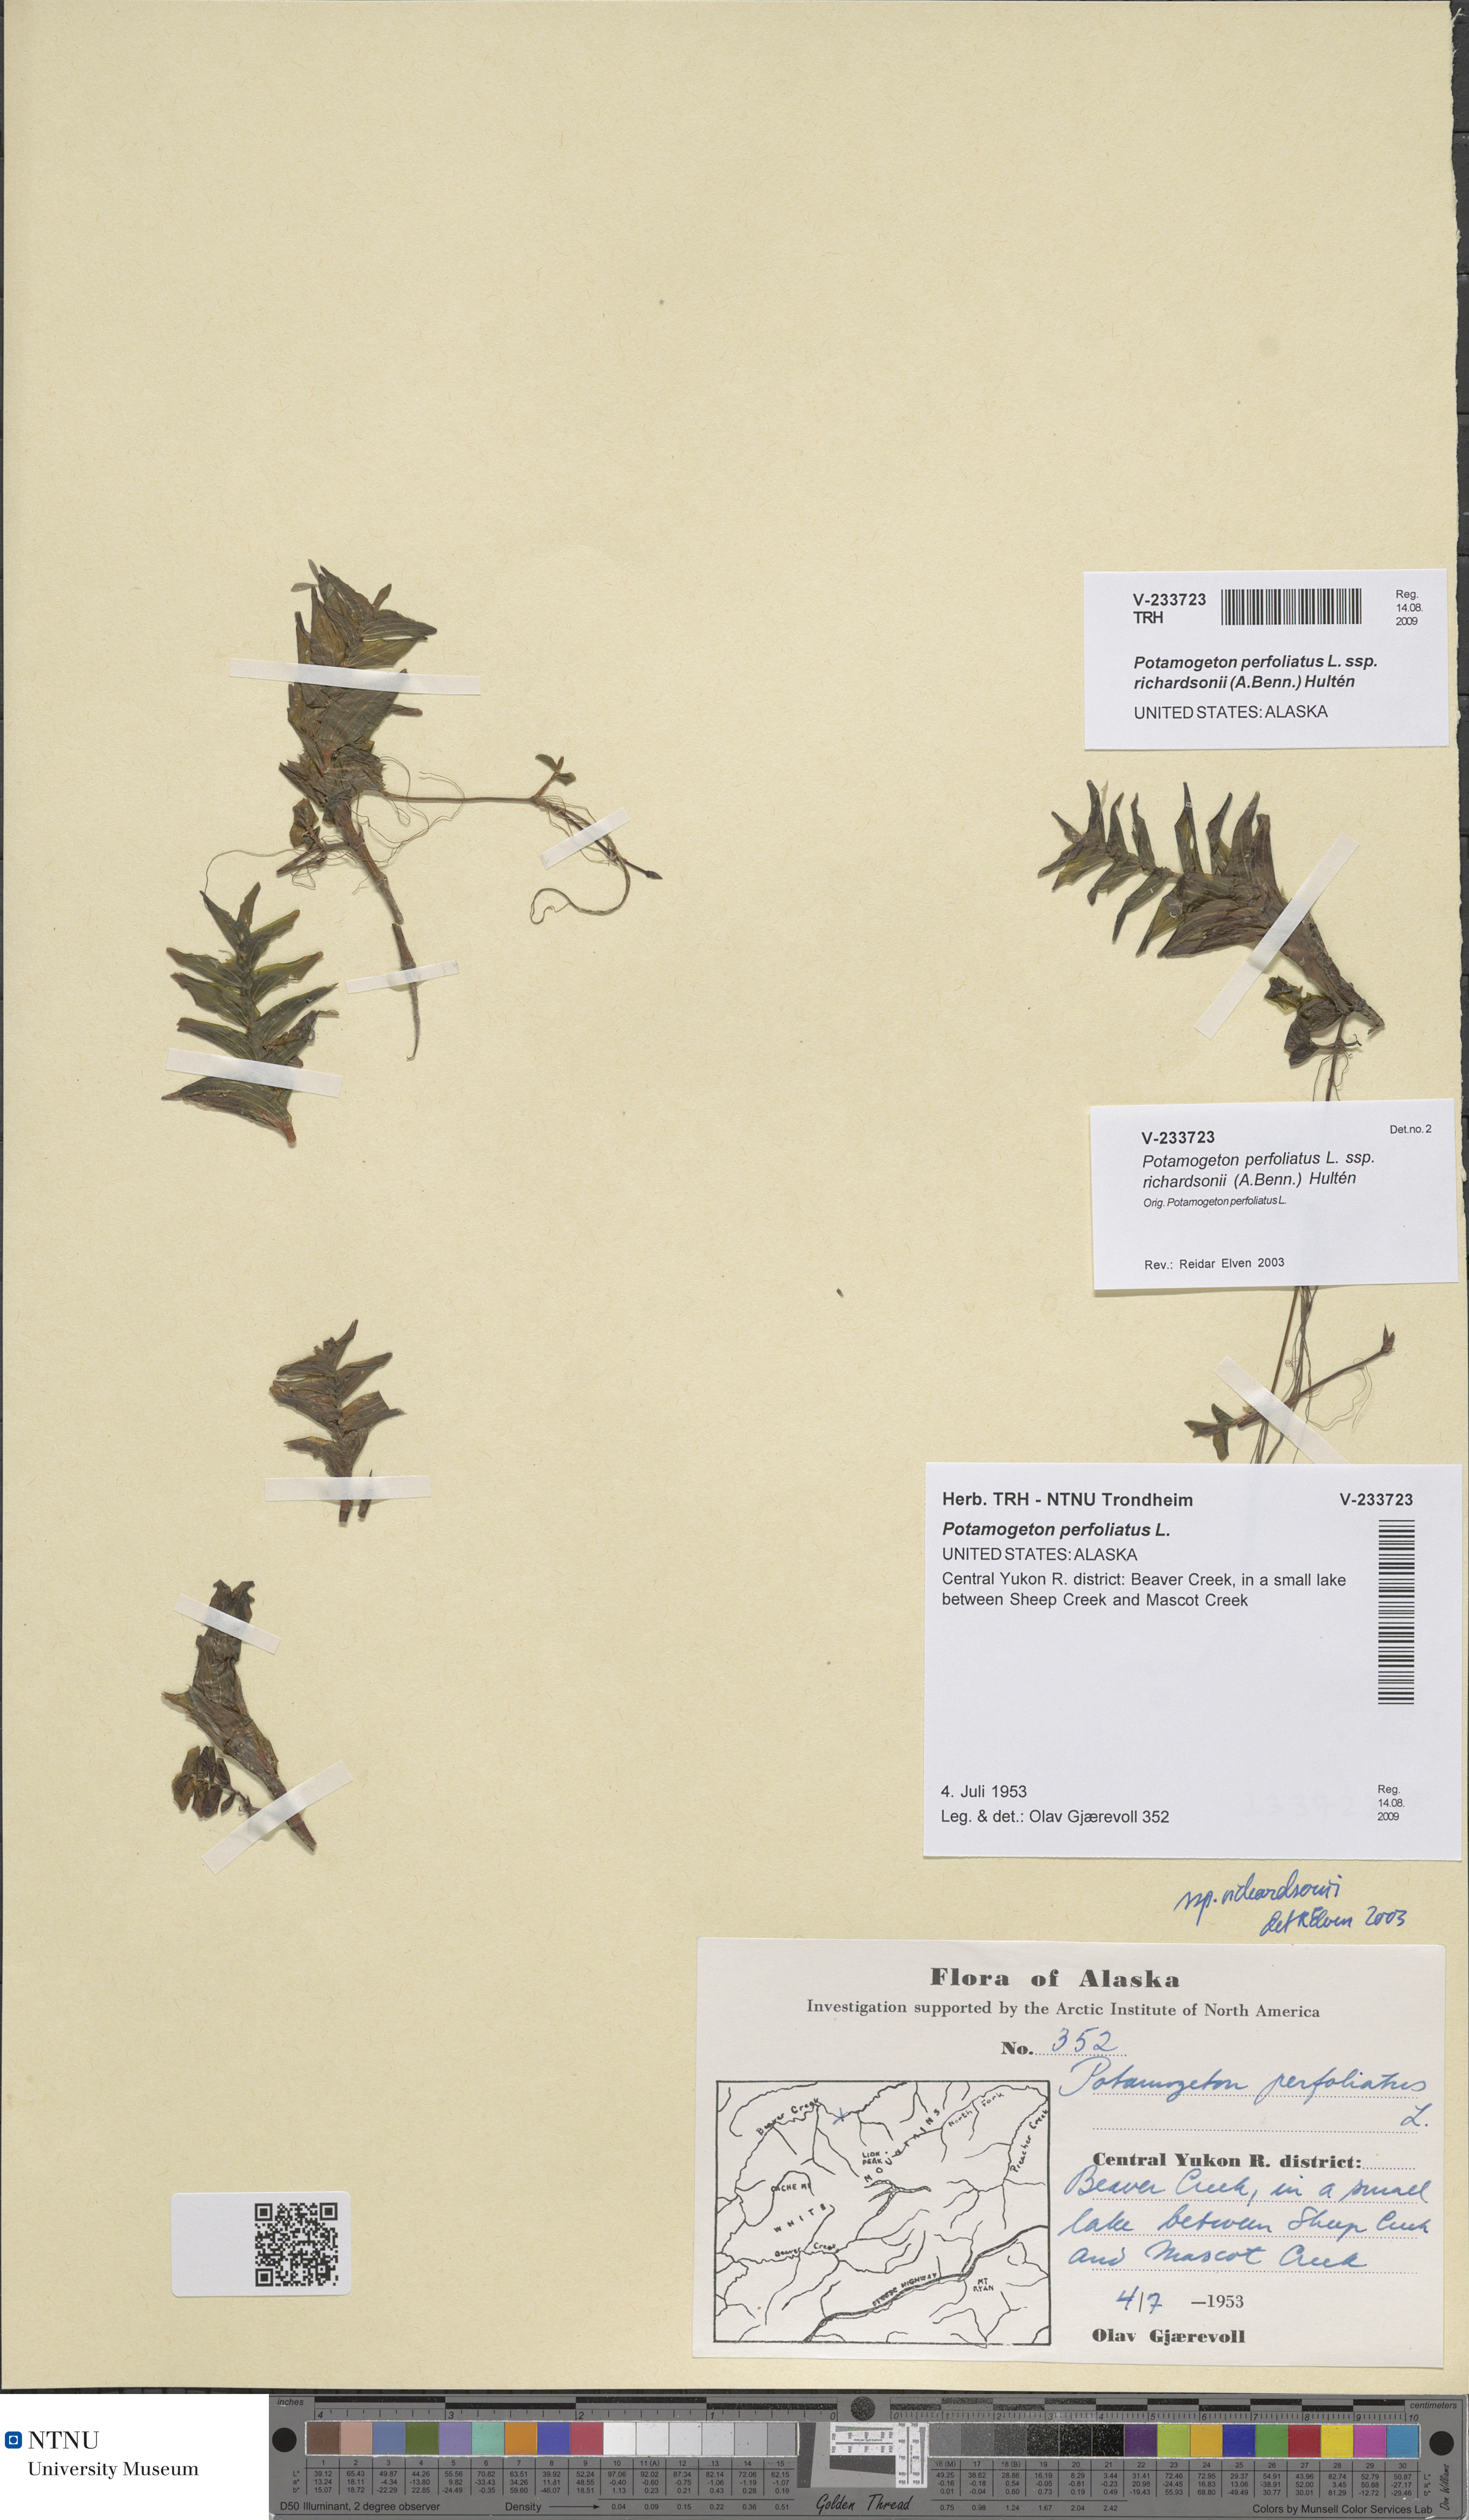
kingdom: Plantae
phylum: Tracheophyta
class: Liliopsida
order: Alismatales
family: Potamogetonaceae
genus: Potamogeton
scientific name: Potamogeton richardsonii
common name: Richardson's pondweed
